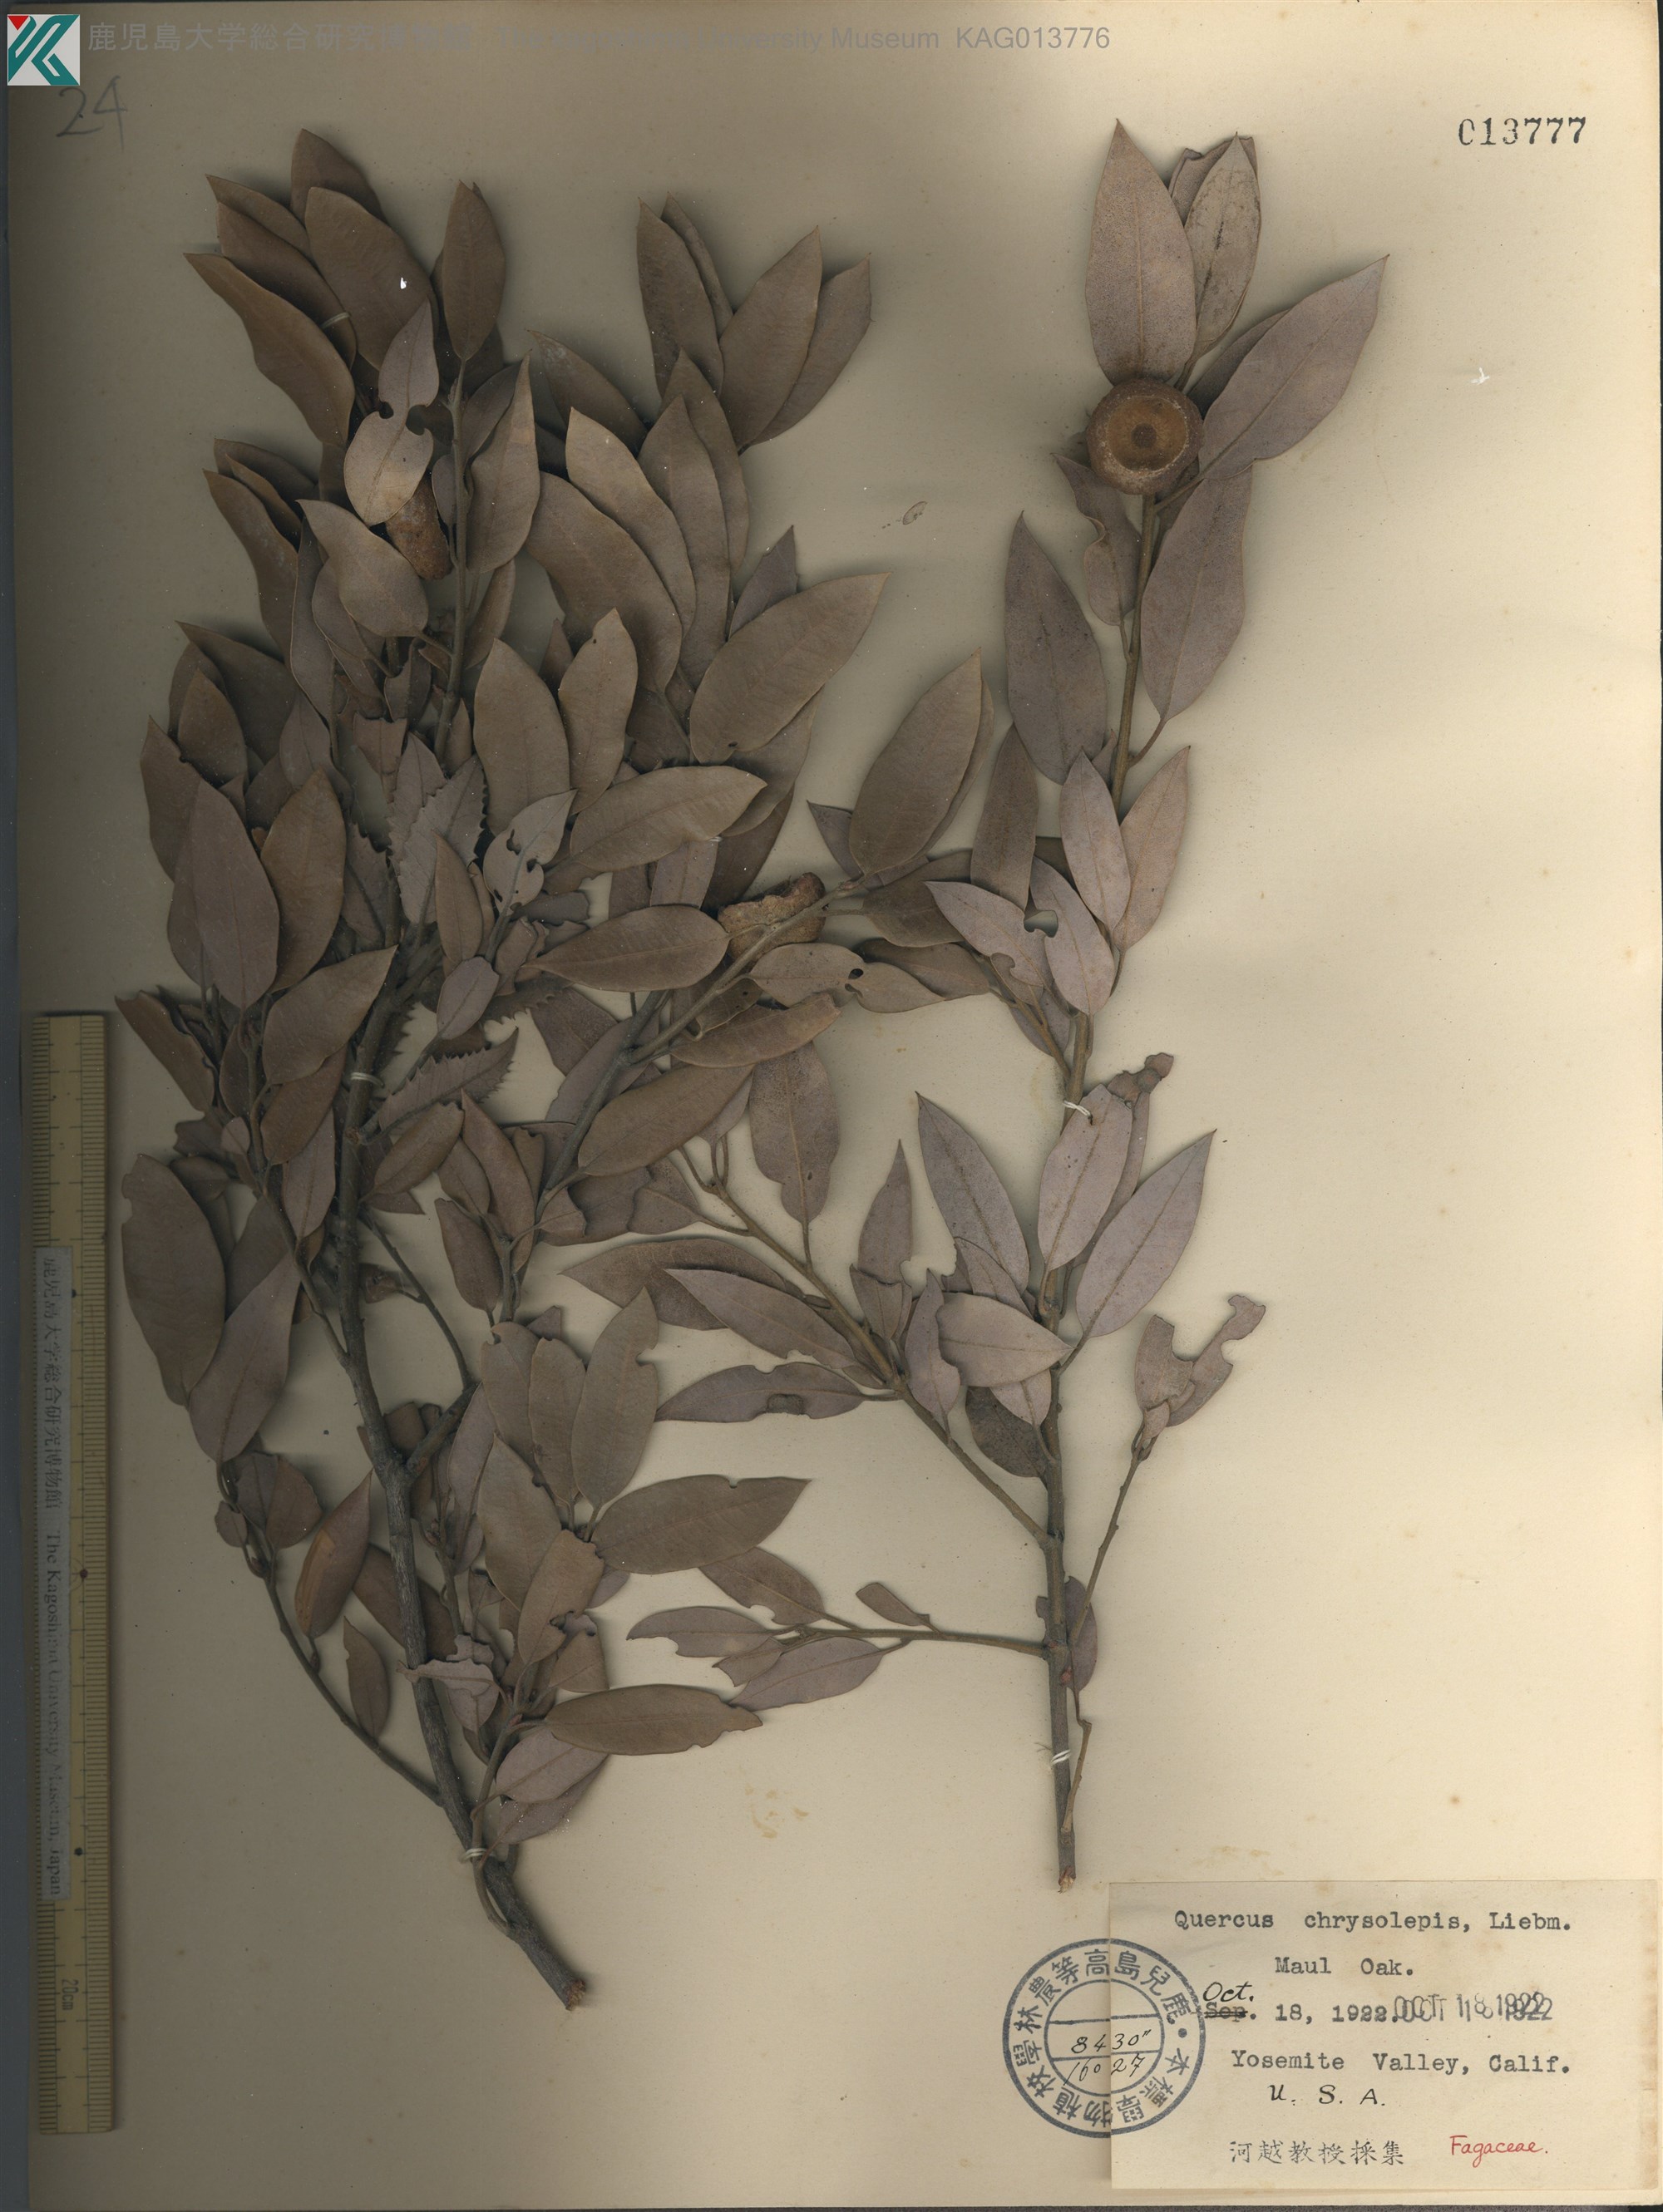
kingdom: Plantae
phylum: Tracheophyta
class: Magnoliopsida
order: Fagales
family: Fagaceae
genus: Quercus
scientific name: Quercus chrysolepis
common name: Canyon live oak
